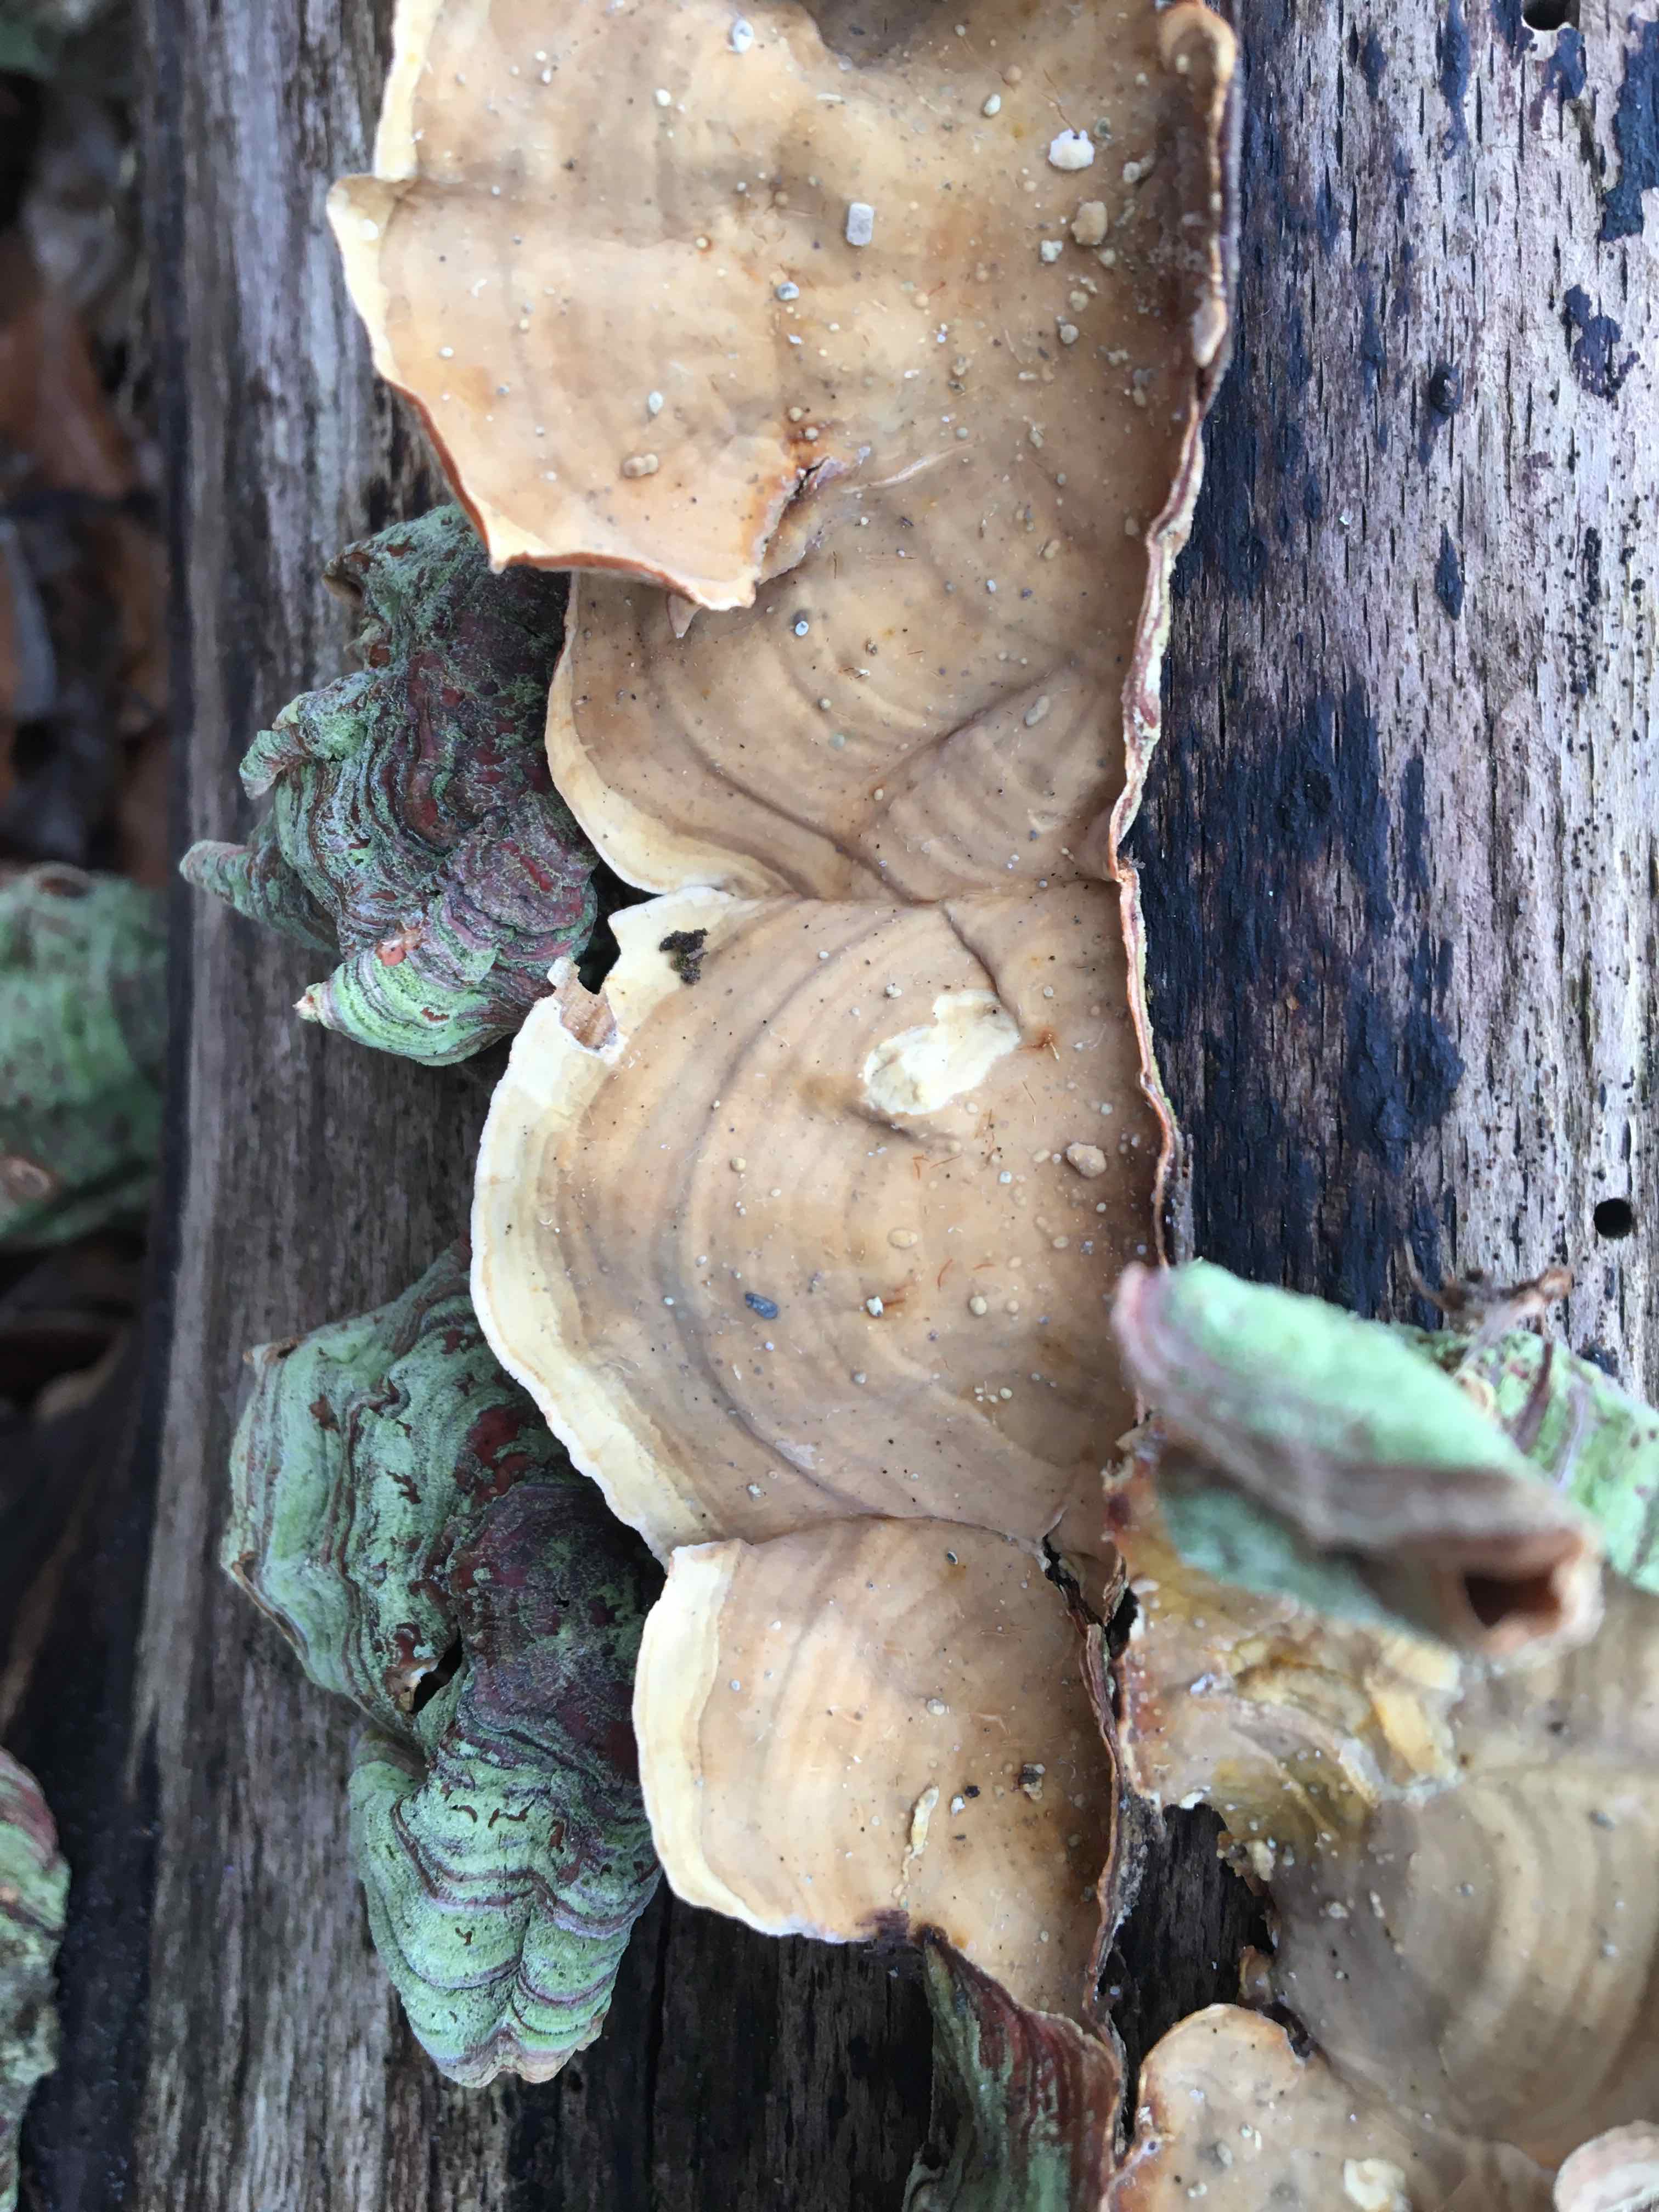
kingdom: Fungi
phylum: Basidiomycota
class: Agaricomycetes
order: Russulales
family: Stereaceae
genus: Stereum
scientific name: Stereum subtomentosum
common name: smuk lædersvamp
